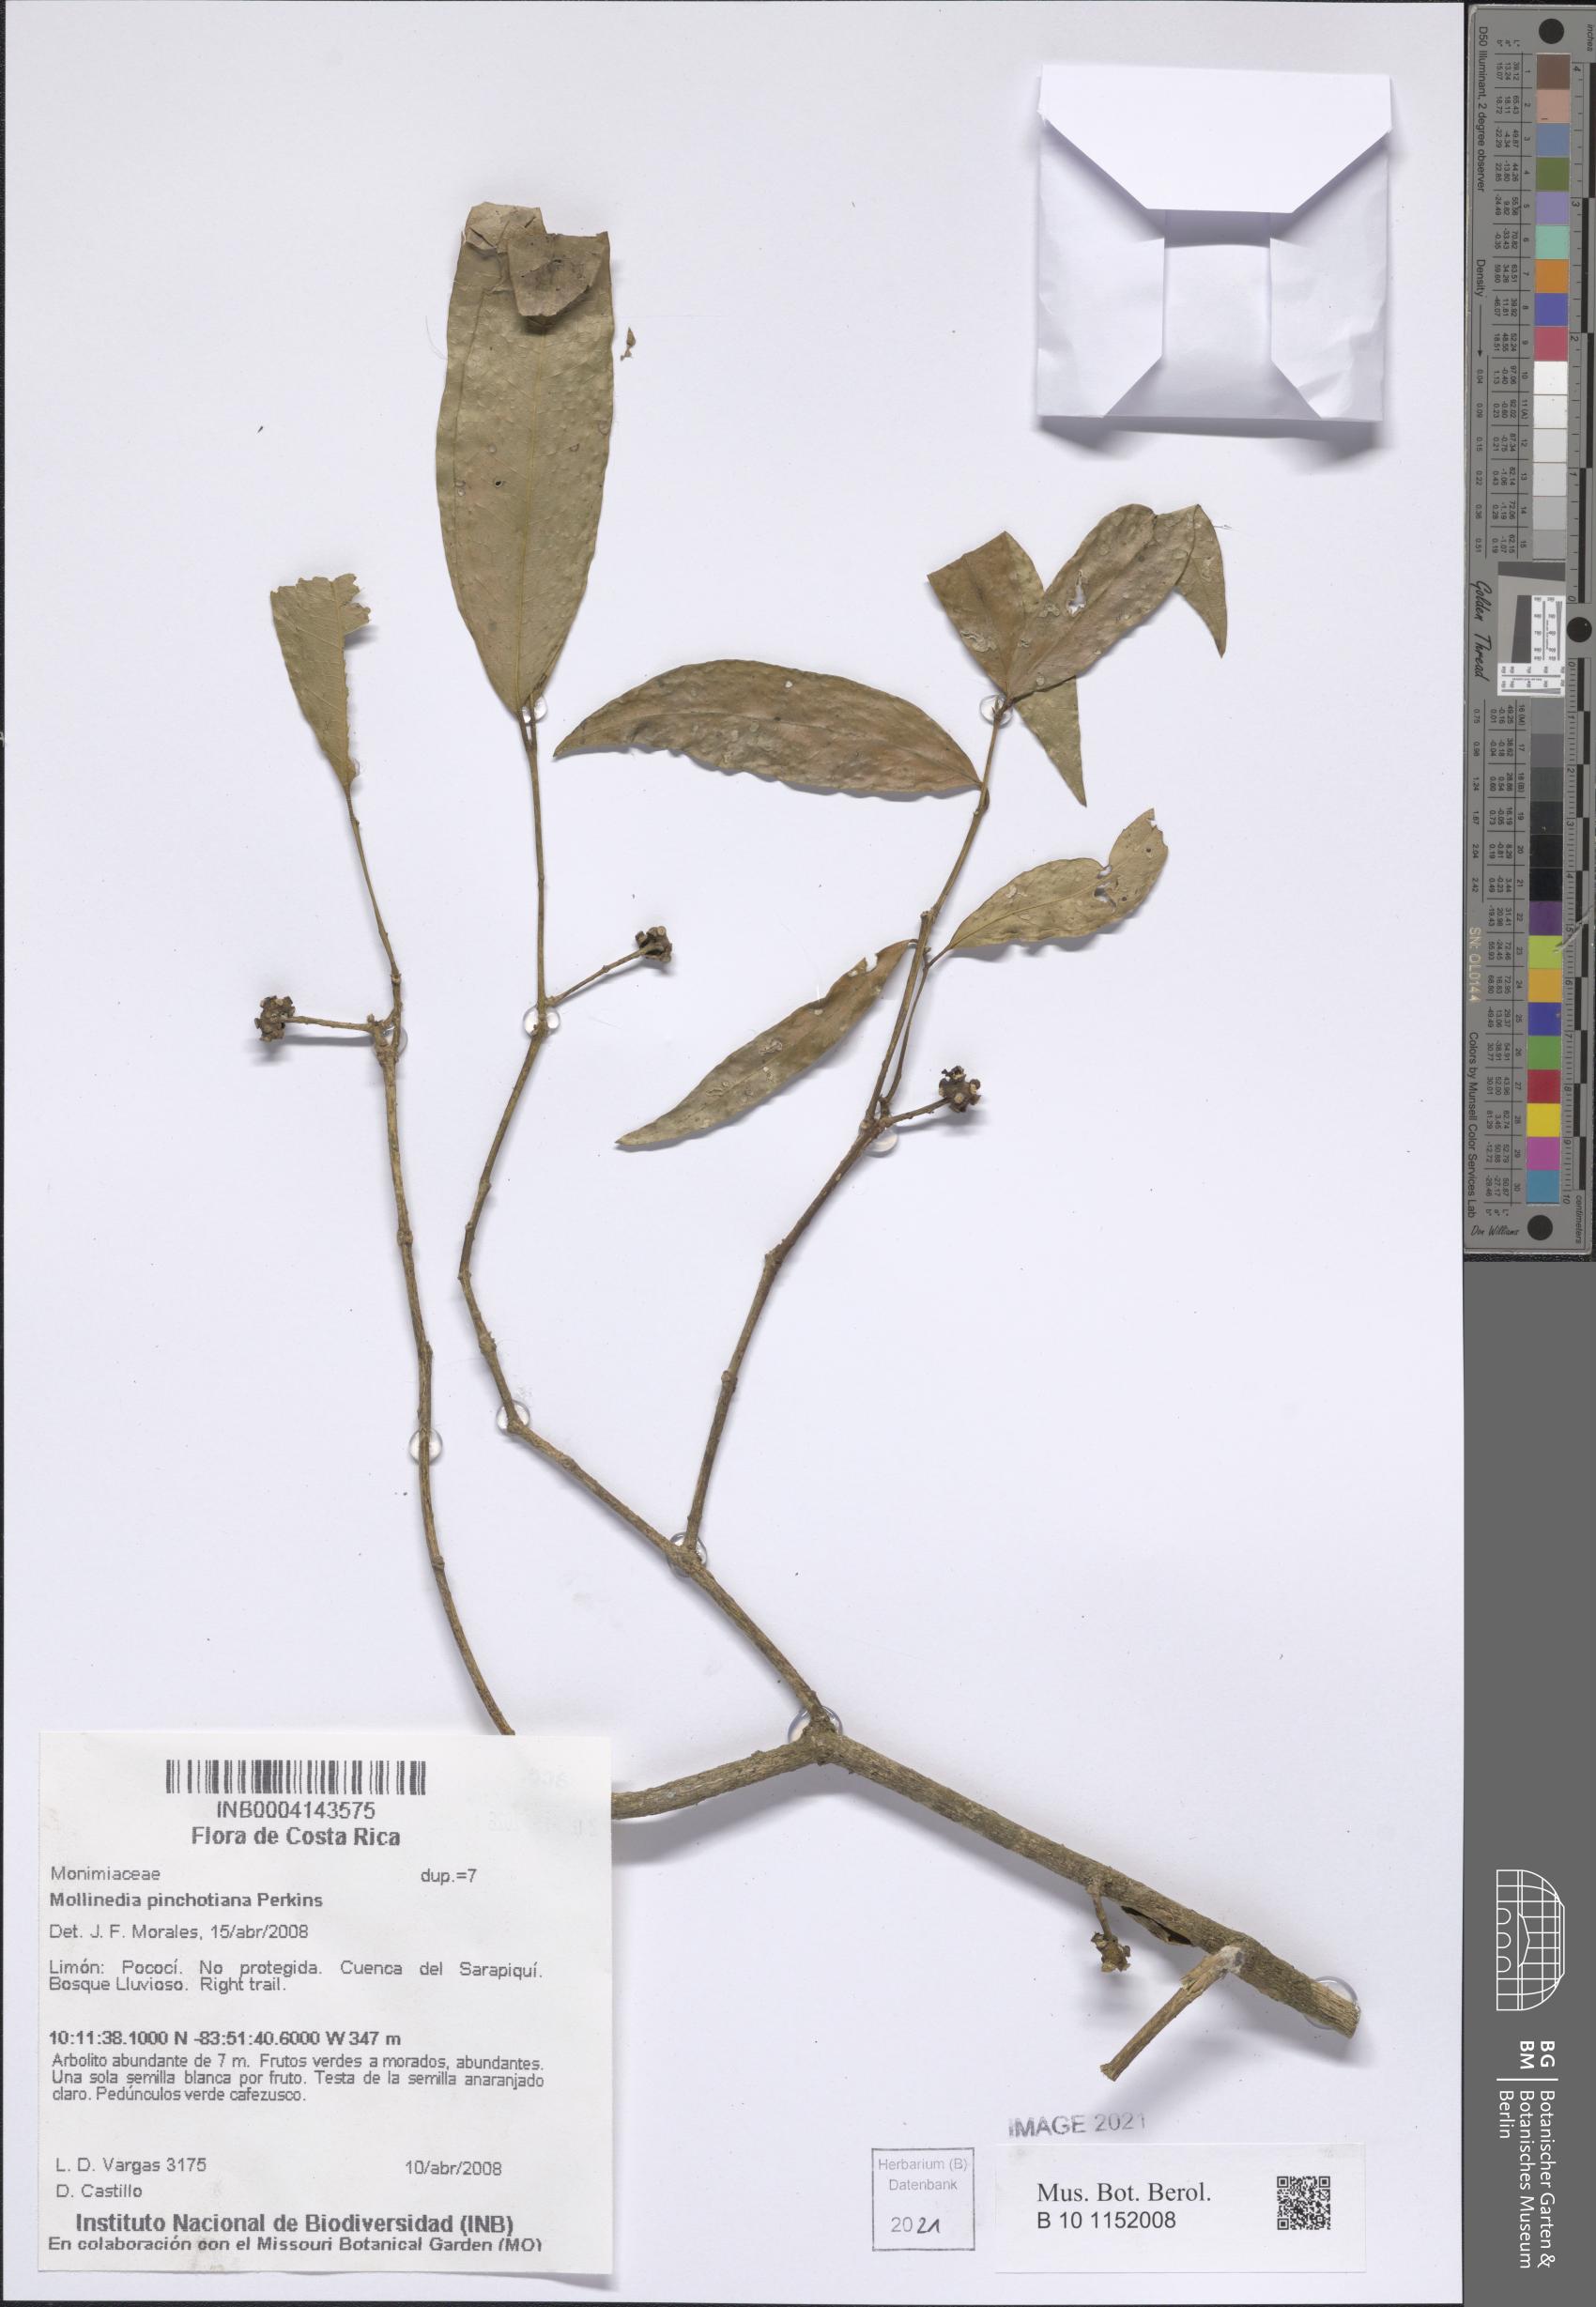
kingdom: Plantae
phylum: Tracheophyta
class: Magnoliopsida
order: Laurales
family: Monimiaceae
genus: Mollinedia
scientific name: Mollinedia viridiflora
